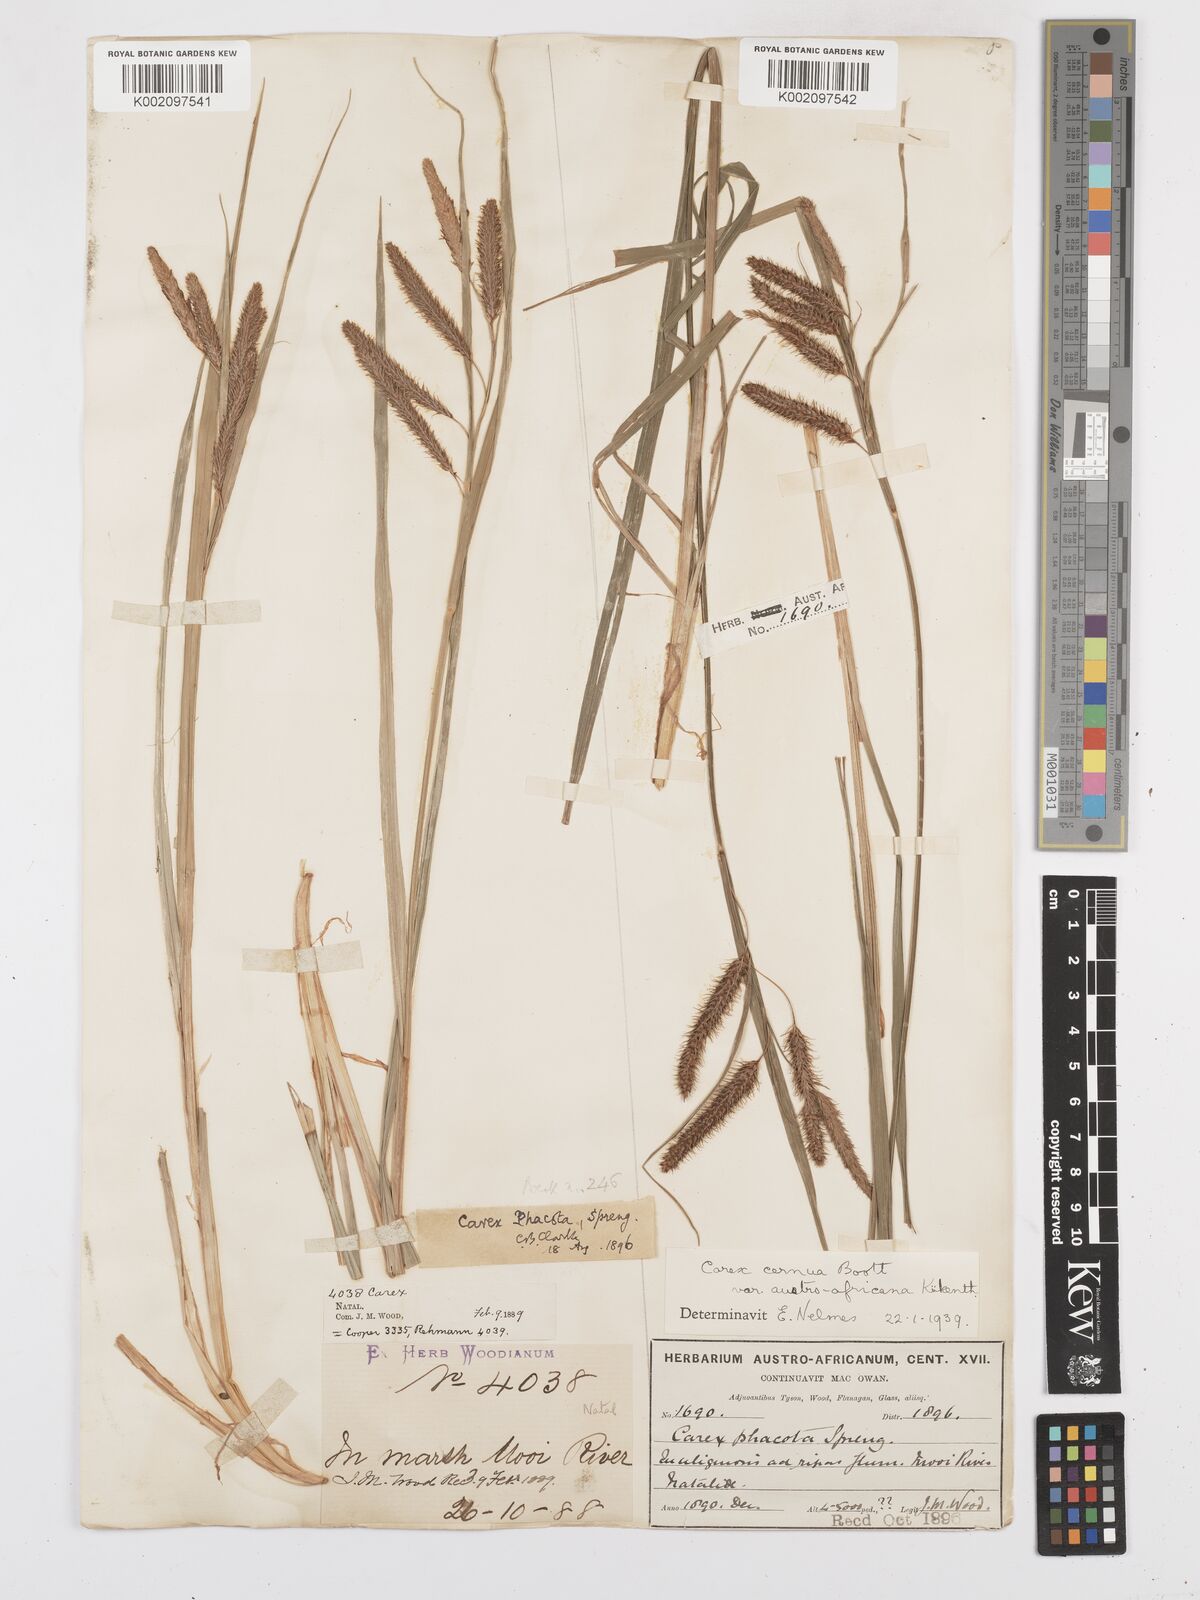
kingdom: Plantae
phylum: Tracheophyta
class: Liliopsida
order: Poales
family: Cyperaceae
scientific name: Cyperaceae
